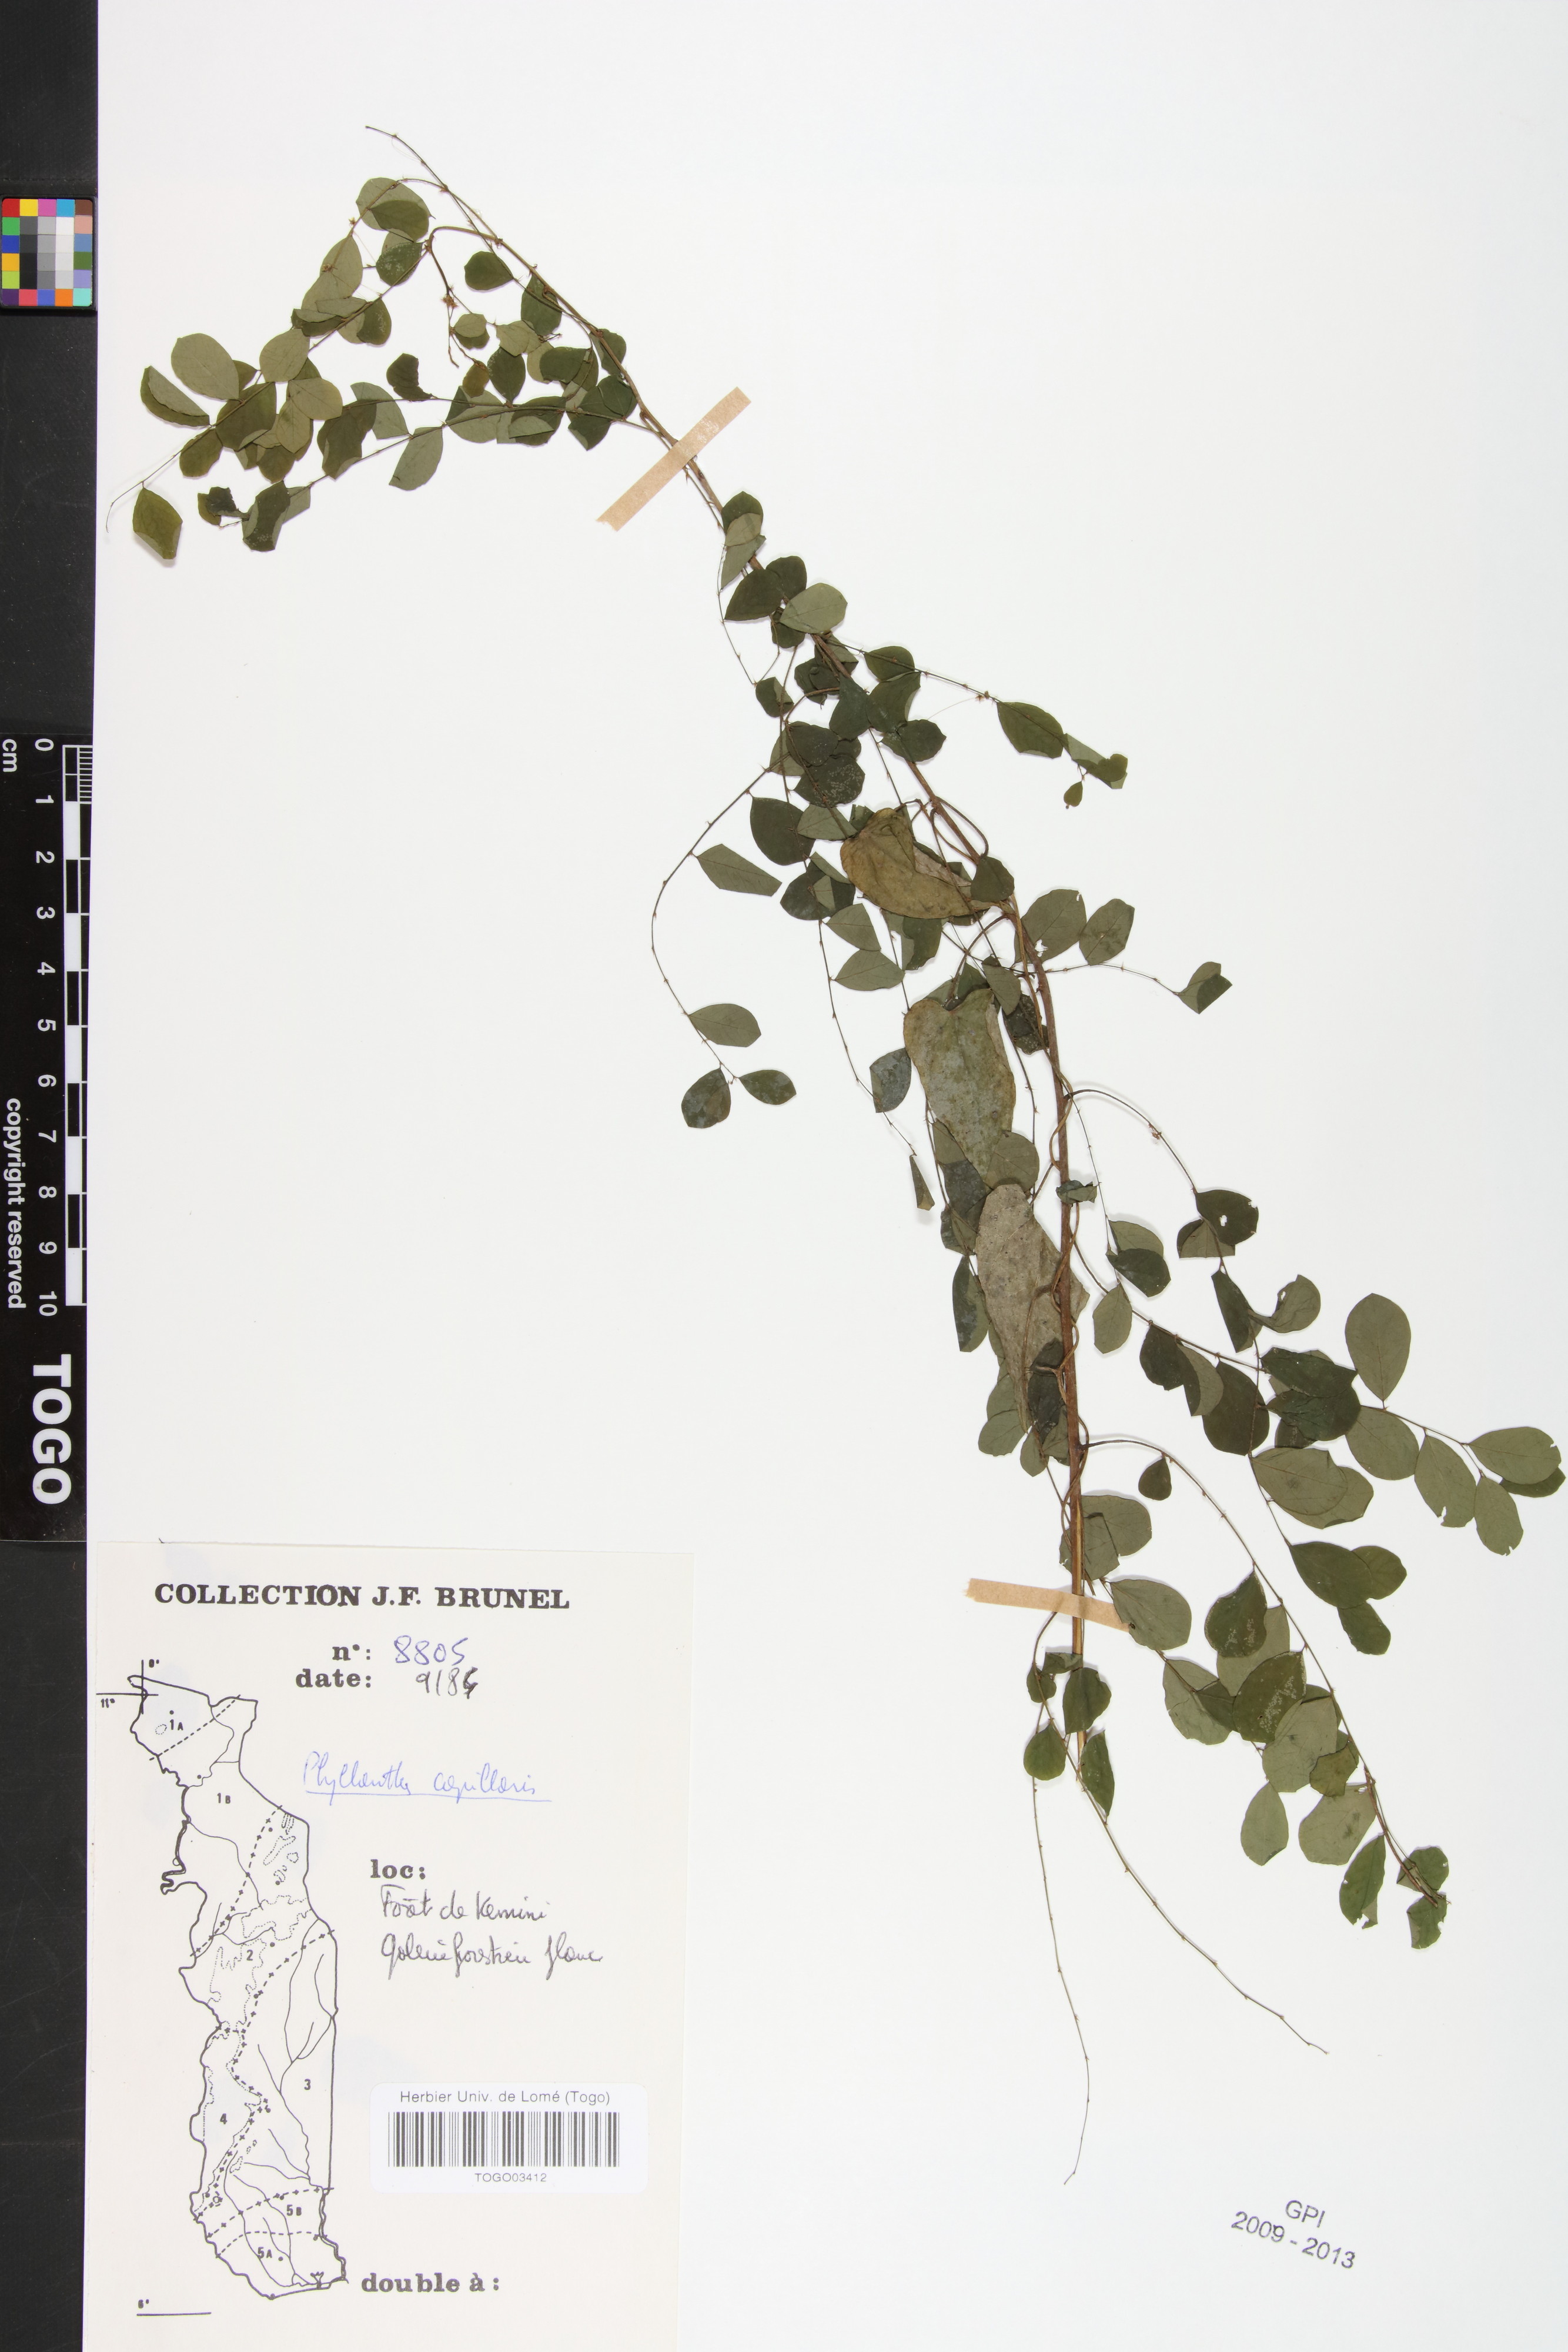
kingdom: Plantae
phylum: Tracheophyta
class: Magnoliopsida
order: Malpighiales
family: Phyllanthaceae
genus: Phyllanthus
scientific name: Phyllanthus nummulariifolius
